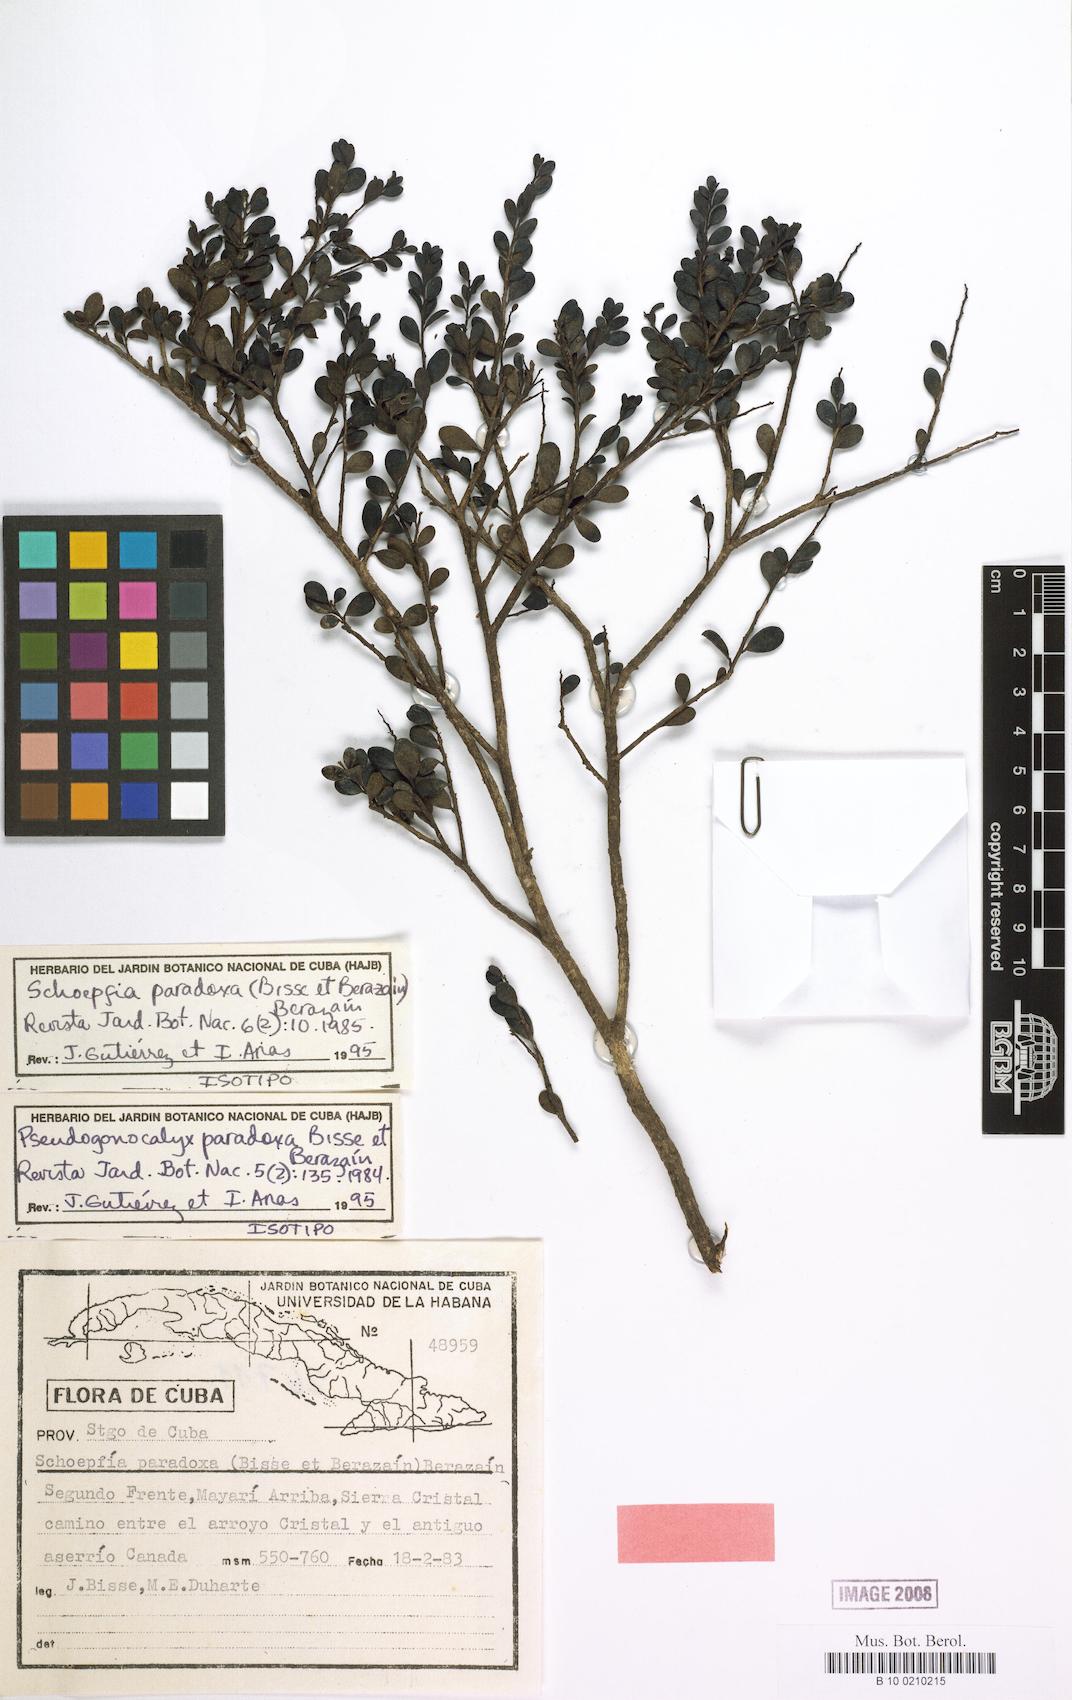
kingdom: Plantae
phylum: Tracheophyta
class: Magnoliopsida
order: Santalales
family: Schoepfiaceae
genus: Schoepfia
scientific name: Schoepfia paradoxa
